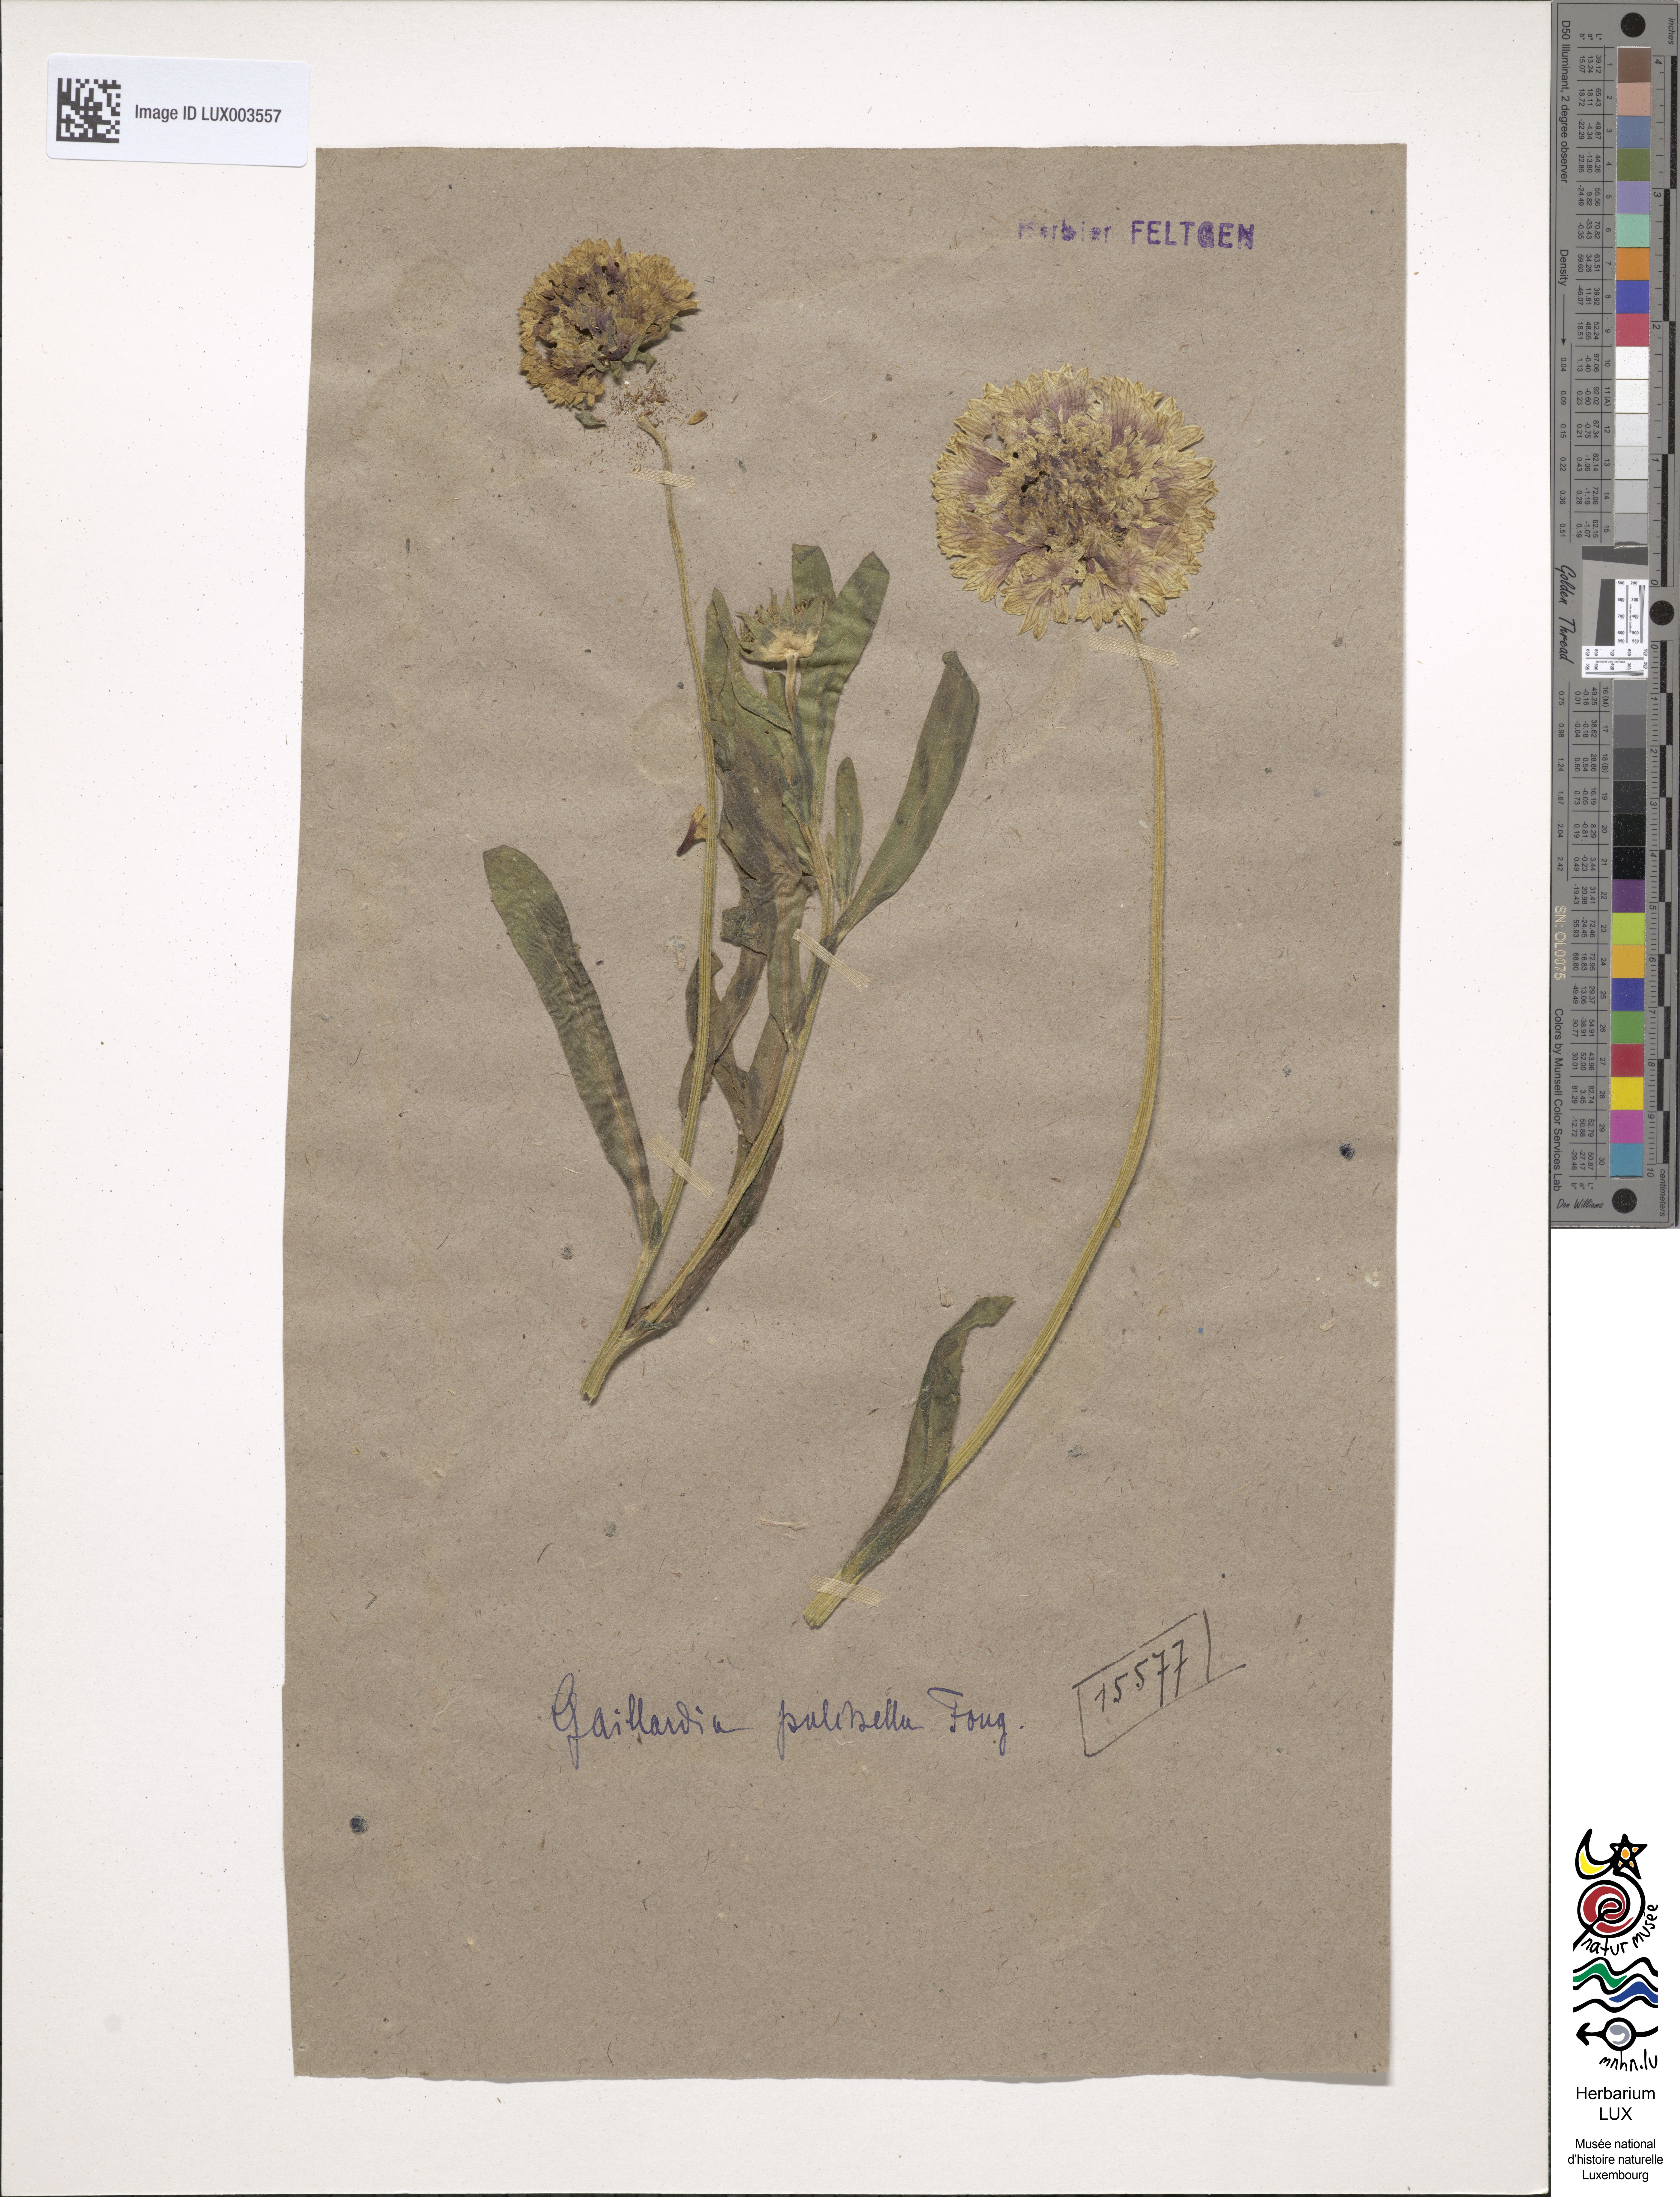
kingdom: Plantae
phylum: Tracheophyta
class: Magnoliopsida
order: Asterales
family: Asteraceae
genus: Gaillardia
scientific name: Gaillardia pulchella
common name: Firewheel
